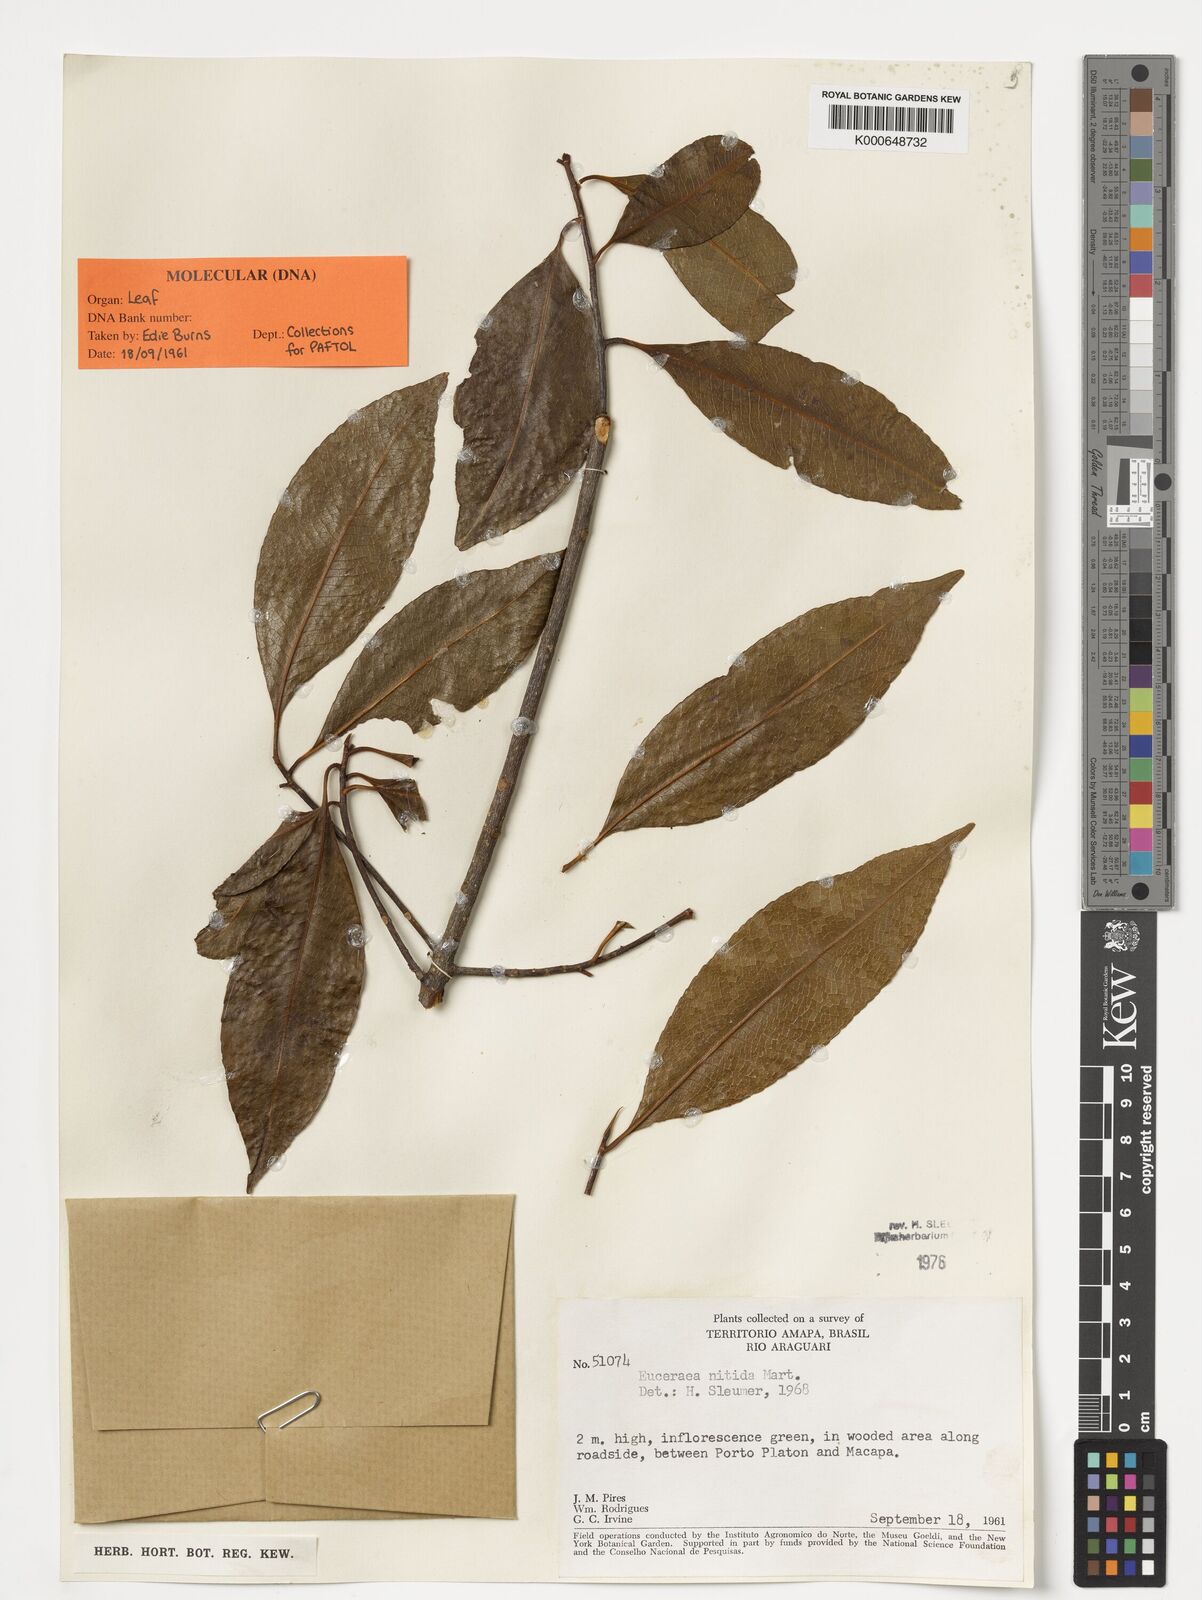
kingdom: Plantae
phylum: Tracheophyta
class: Magnoliopsida
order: Malpighiales
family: Salicaceae
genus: Casearia
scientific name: Casearia euceraea
